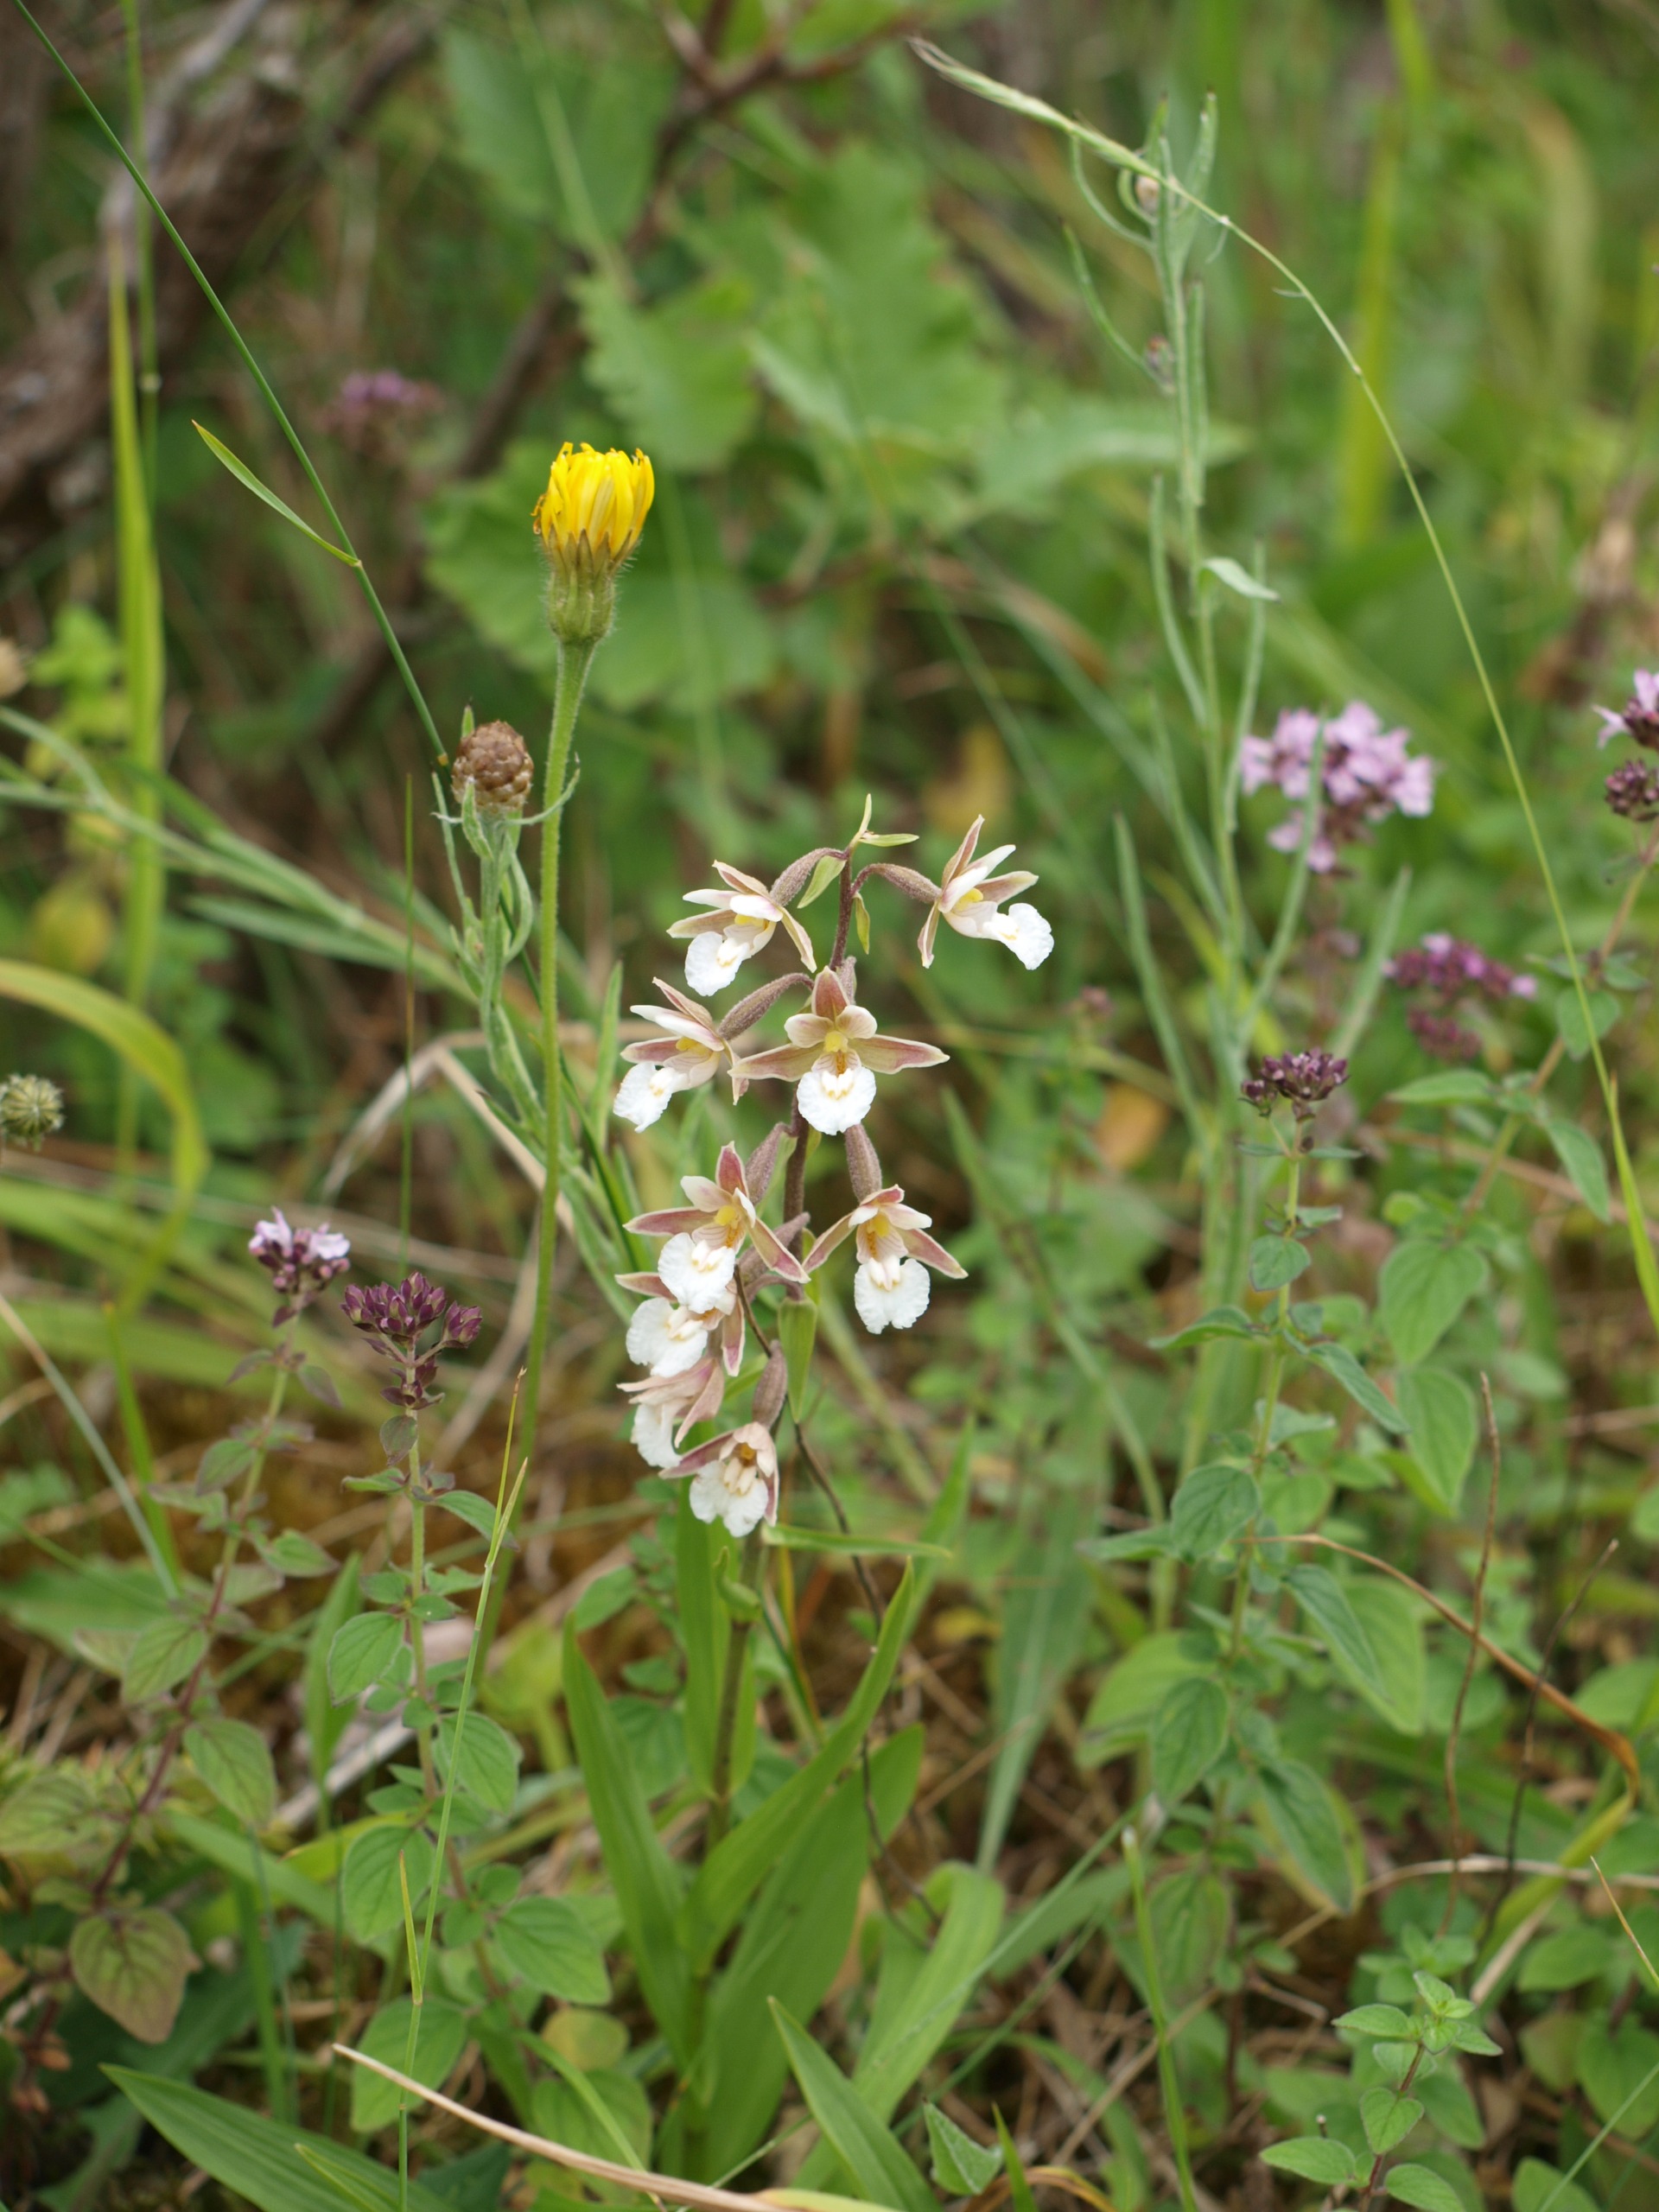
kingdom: Plantae
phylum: Tracheophyta
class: Liliopsida
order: Asparagales
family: Orchidaceae
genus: Epipactis
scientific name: Epipactis palustris
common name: Sump-hullæbe
